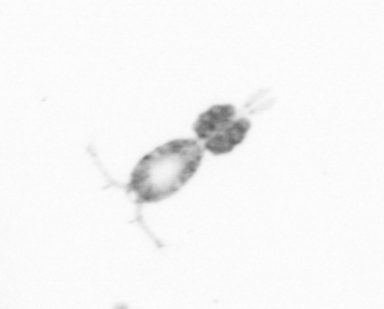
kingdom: Animalia
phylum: Arthropoda
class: Copepoda
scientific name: Copepoda
